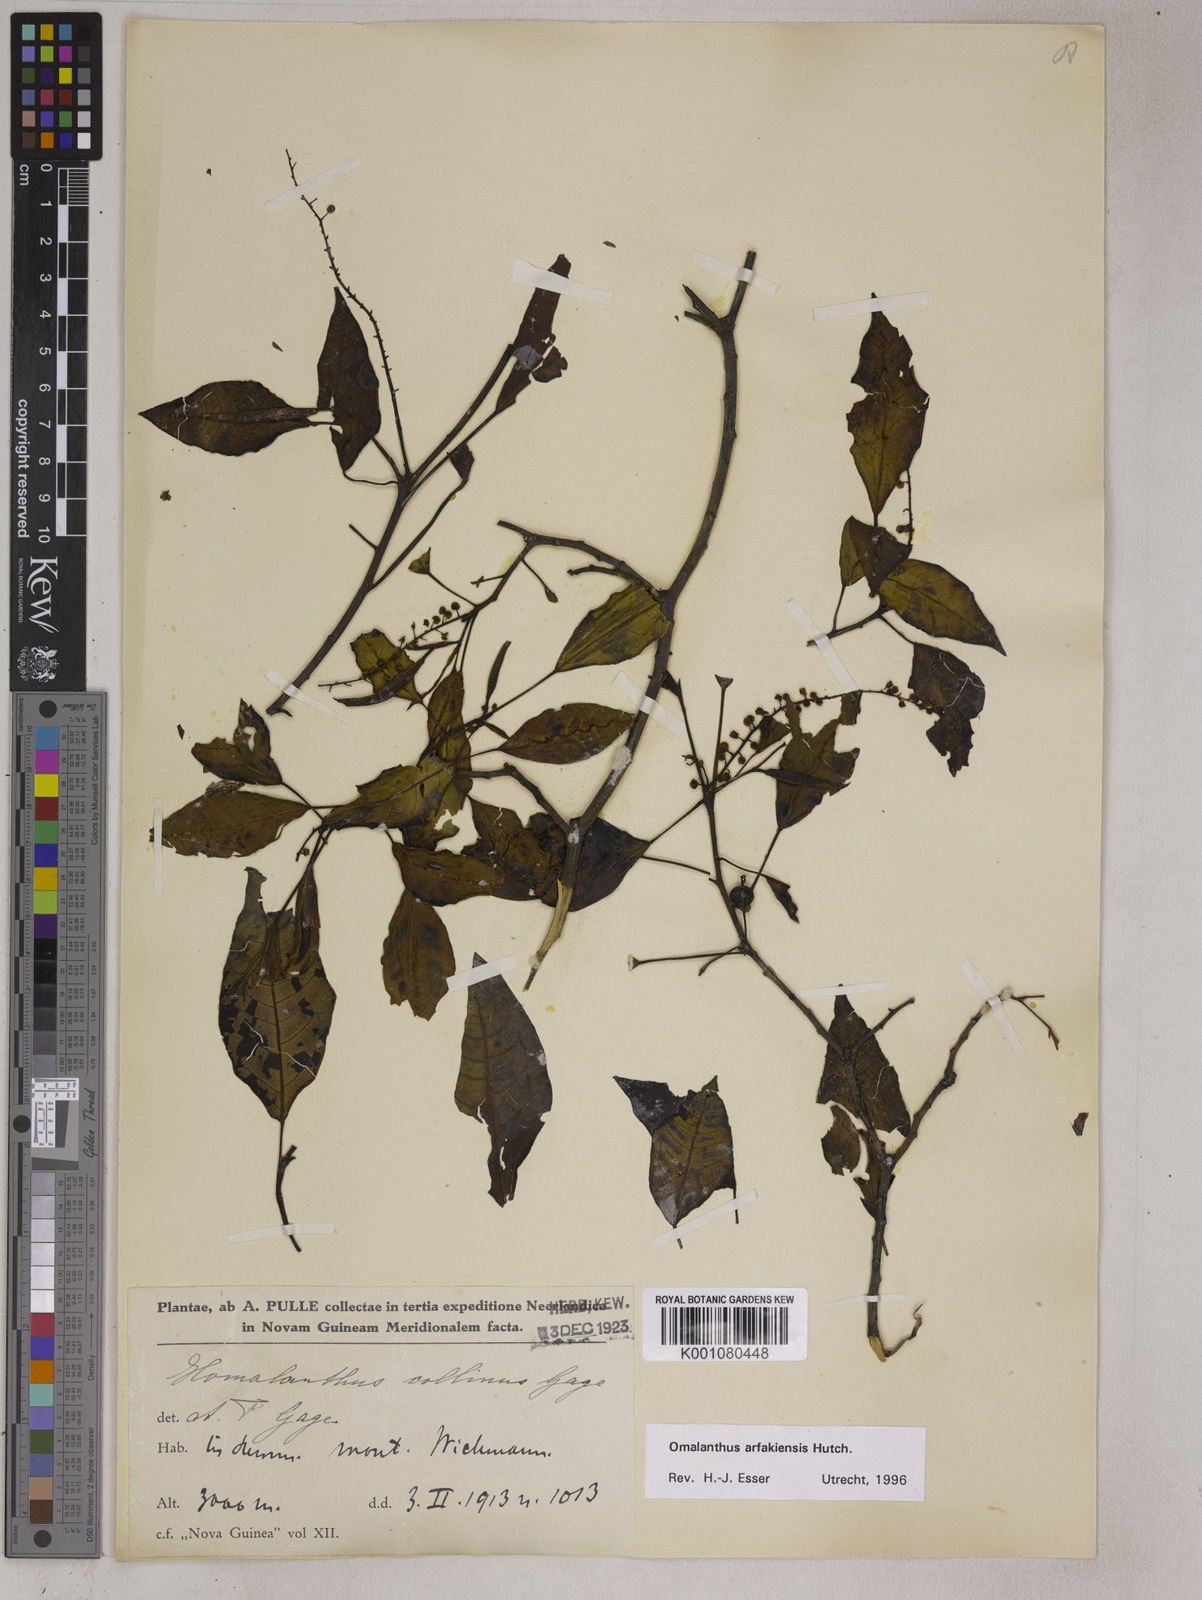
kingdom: Plantae
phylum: Tracheophyta
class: Magnoliopsida
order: Malpighiales
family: Euphorbiaceae
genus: Homalanthus
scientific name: Homalanthus arfakiensis
